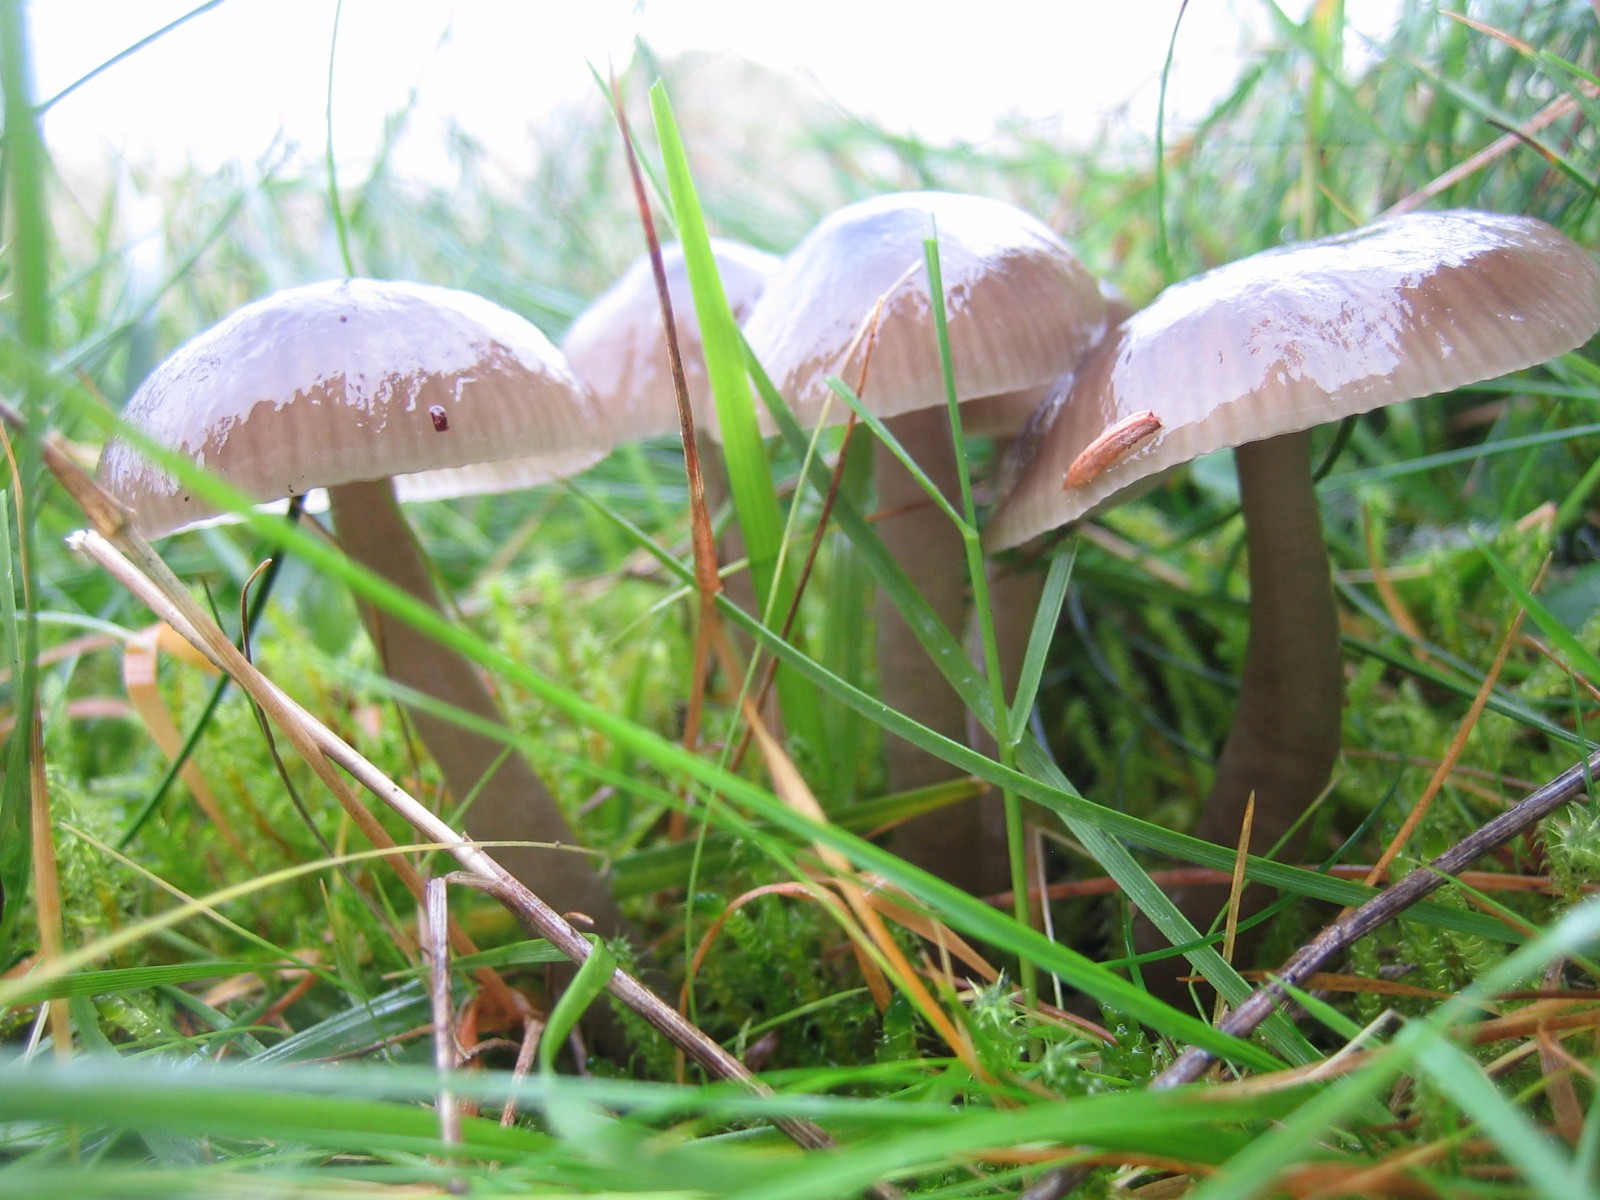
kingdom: Fungi
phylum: Basidiomycota
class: Agaricomycetes
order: Agaricales
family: Hygrophoraceae
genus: Gliophorus
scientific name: Gliophorus irrigatus
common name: slimet vokshat
